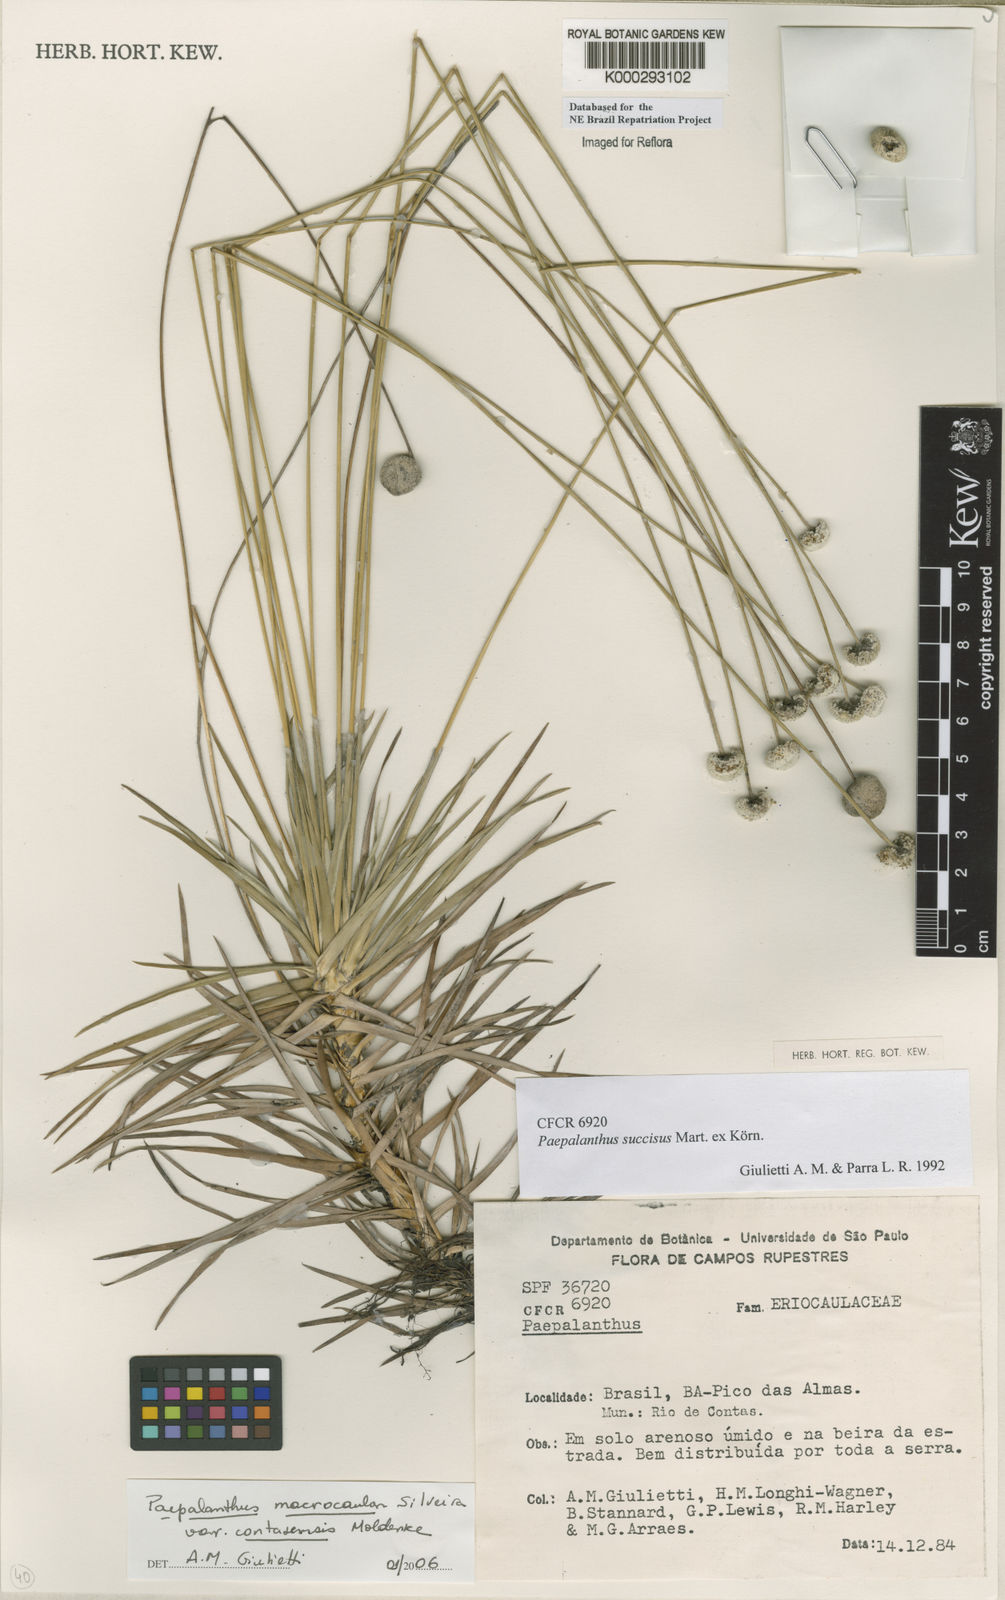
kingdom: Plantae
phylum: Tracheophyta
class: Liliopsida
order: Poales
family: Eriocaulaceae
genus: Paepalanthus
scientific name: Paepalanthus
